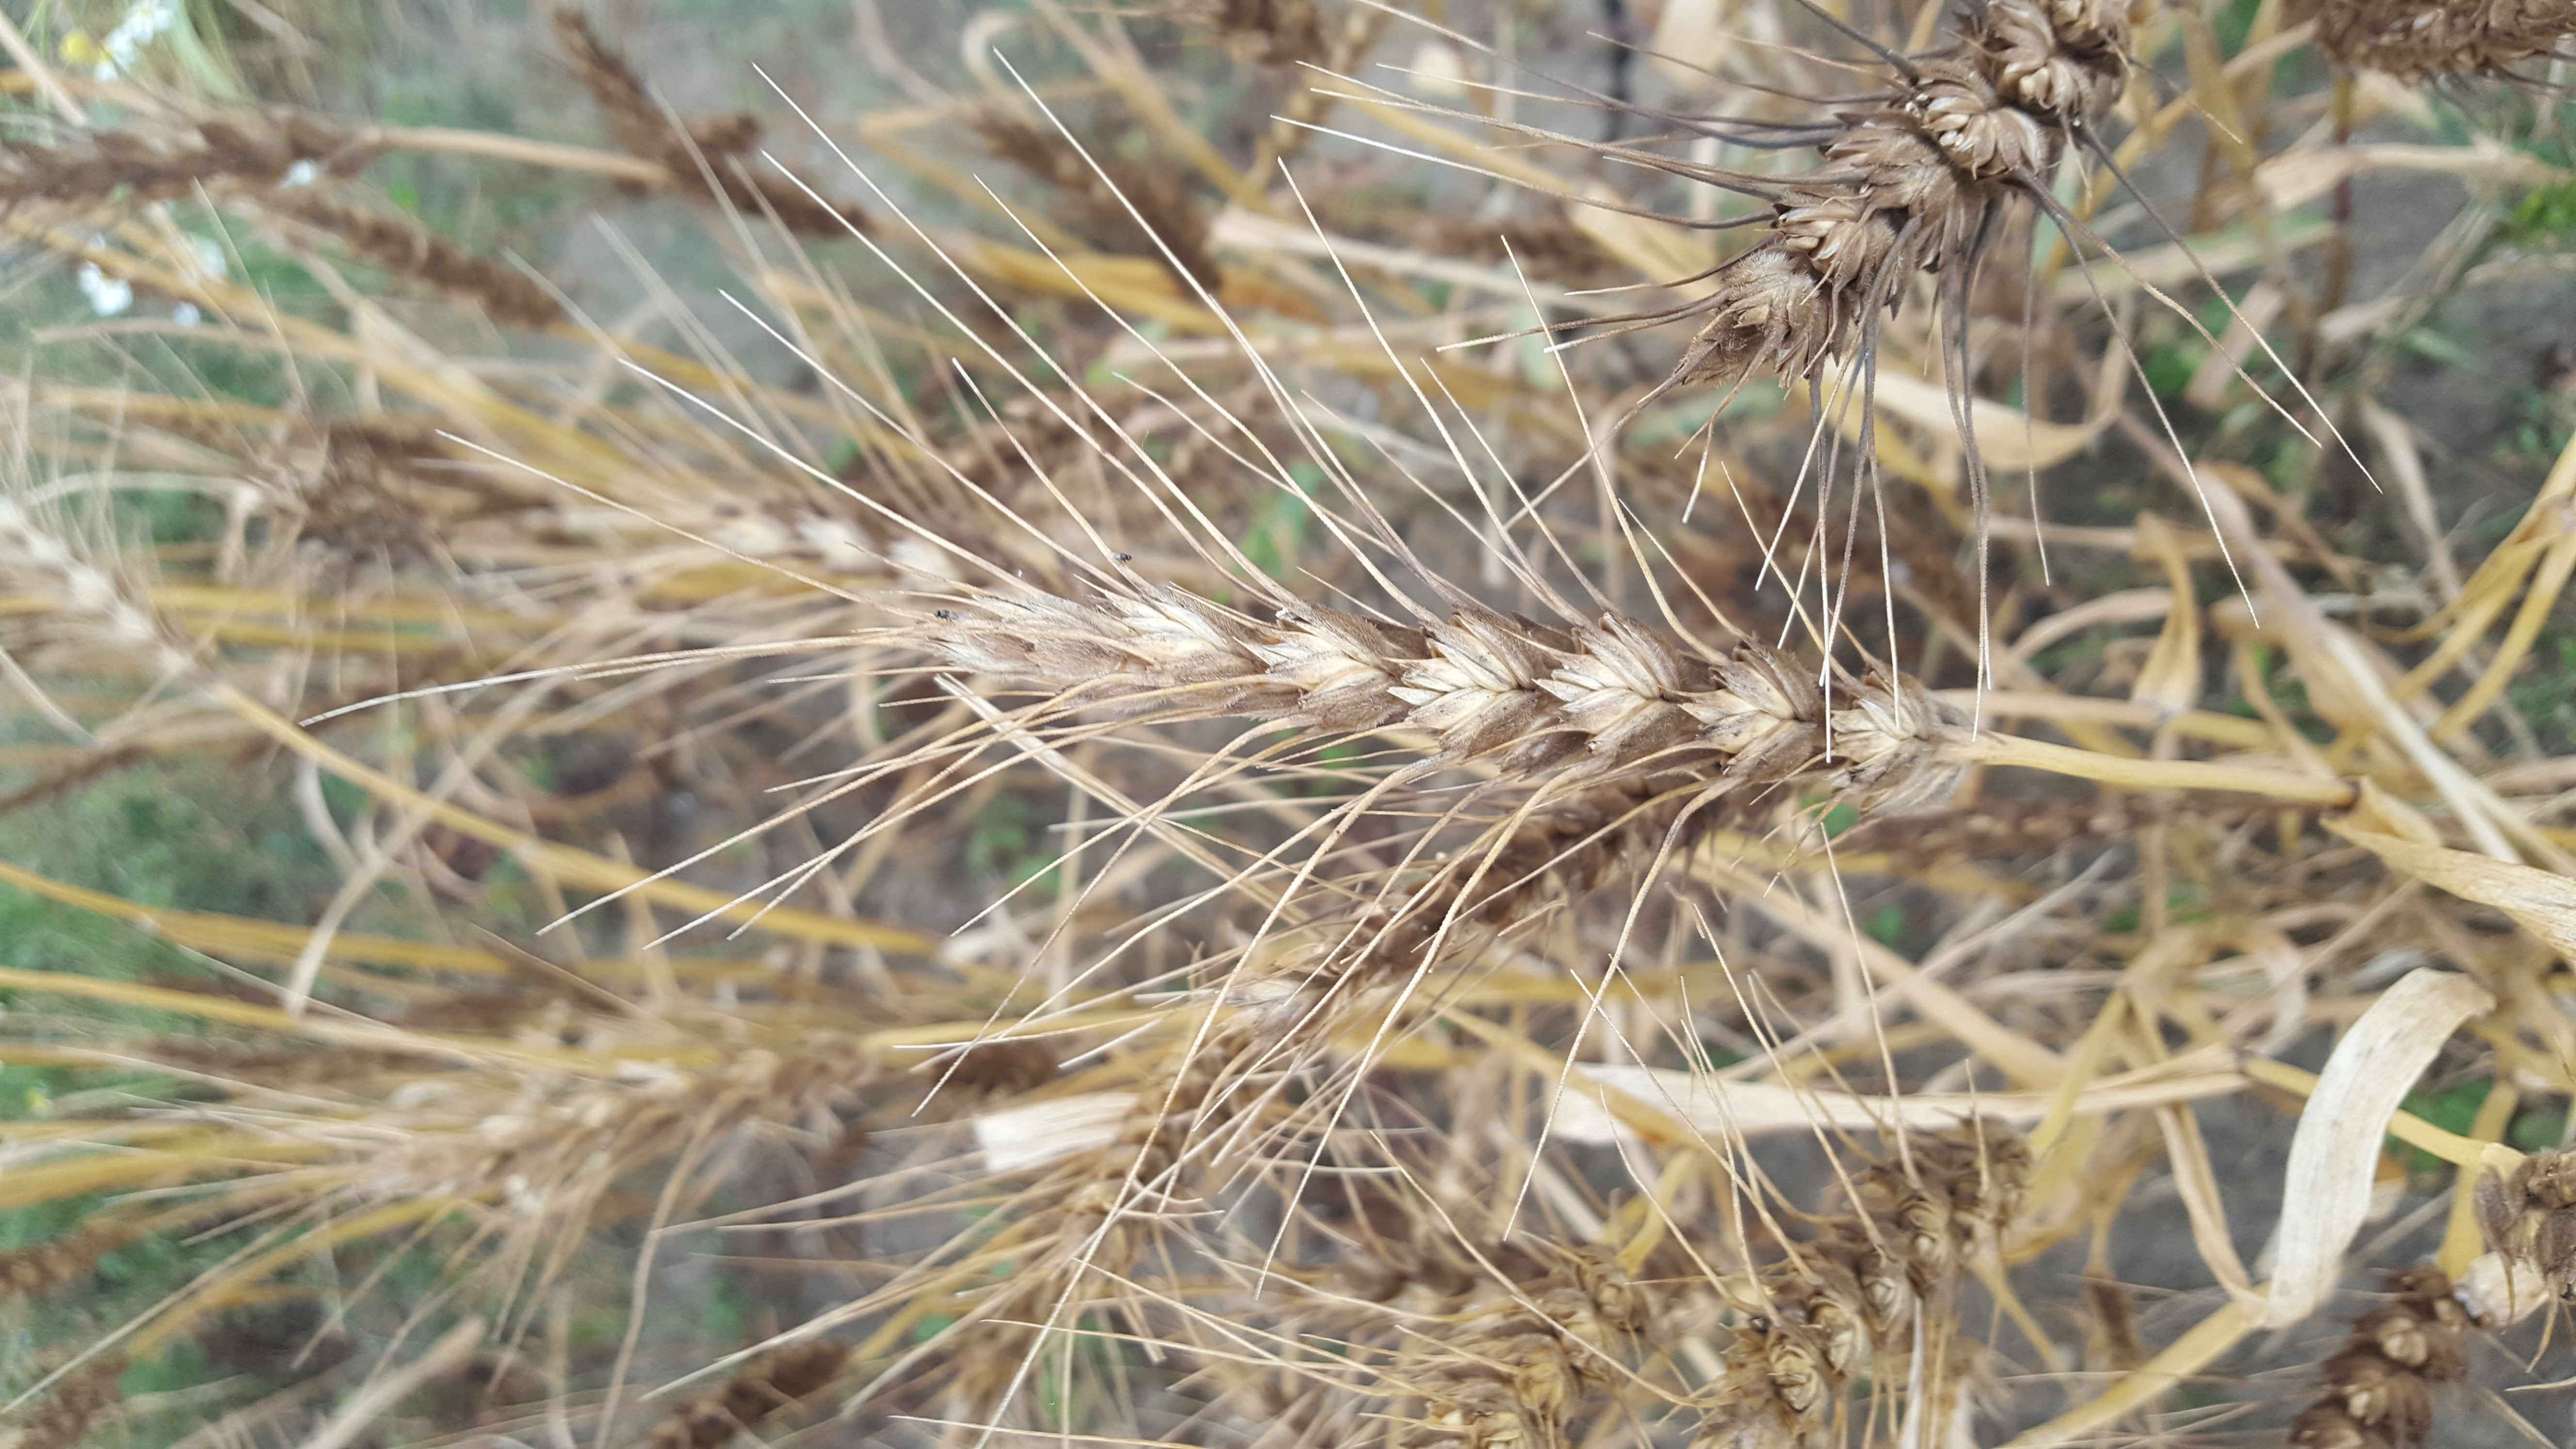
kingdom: Plantae
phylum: Tracheophyta
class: Liliopsida
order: Poales
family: Poaceae
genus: Triticum
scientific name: Triticum aestivum
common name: Common wheat
